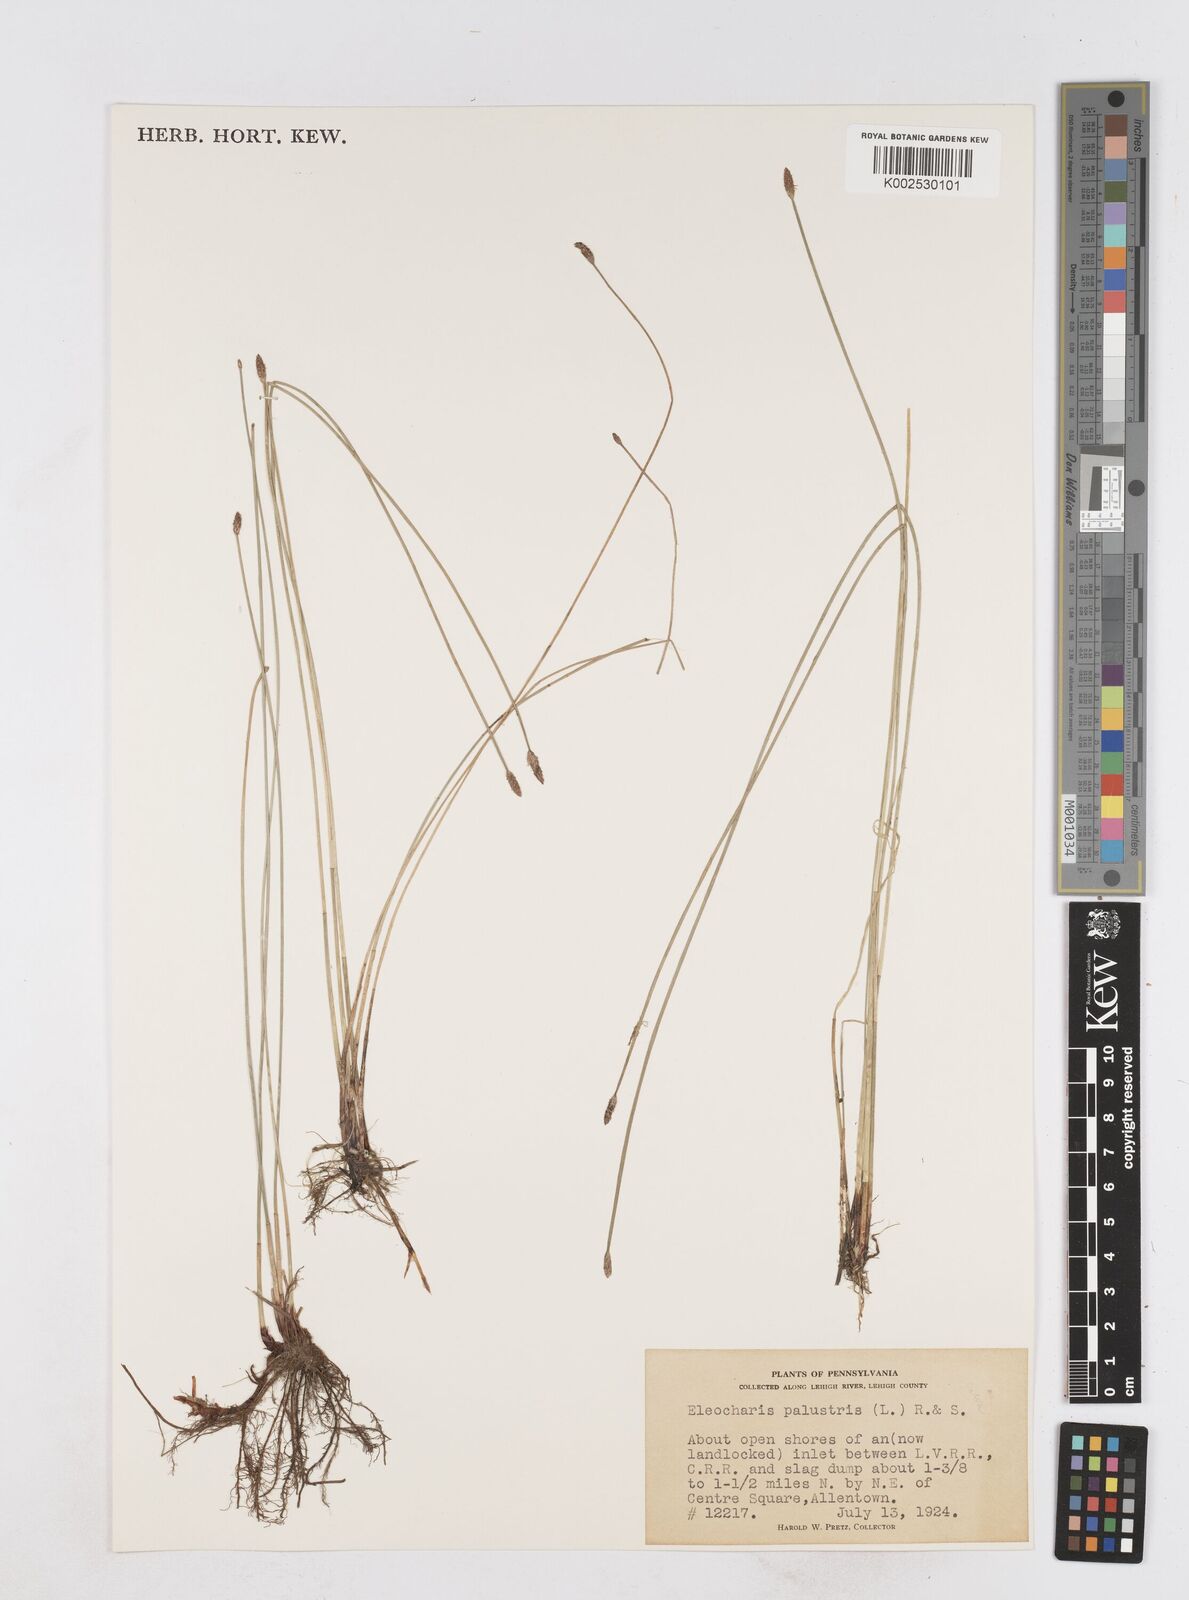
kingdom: Plantae
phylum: Tracheophyta
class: Liliopsida
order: Poales
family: Cyperaceae
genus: Eleocharis
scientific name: Eleocharis palustris
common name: Common spike-rush
